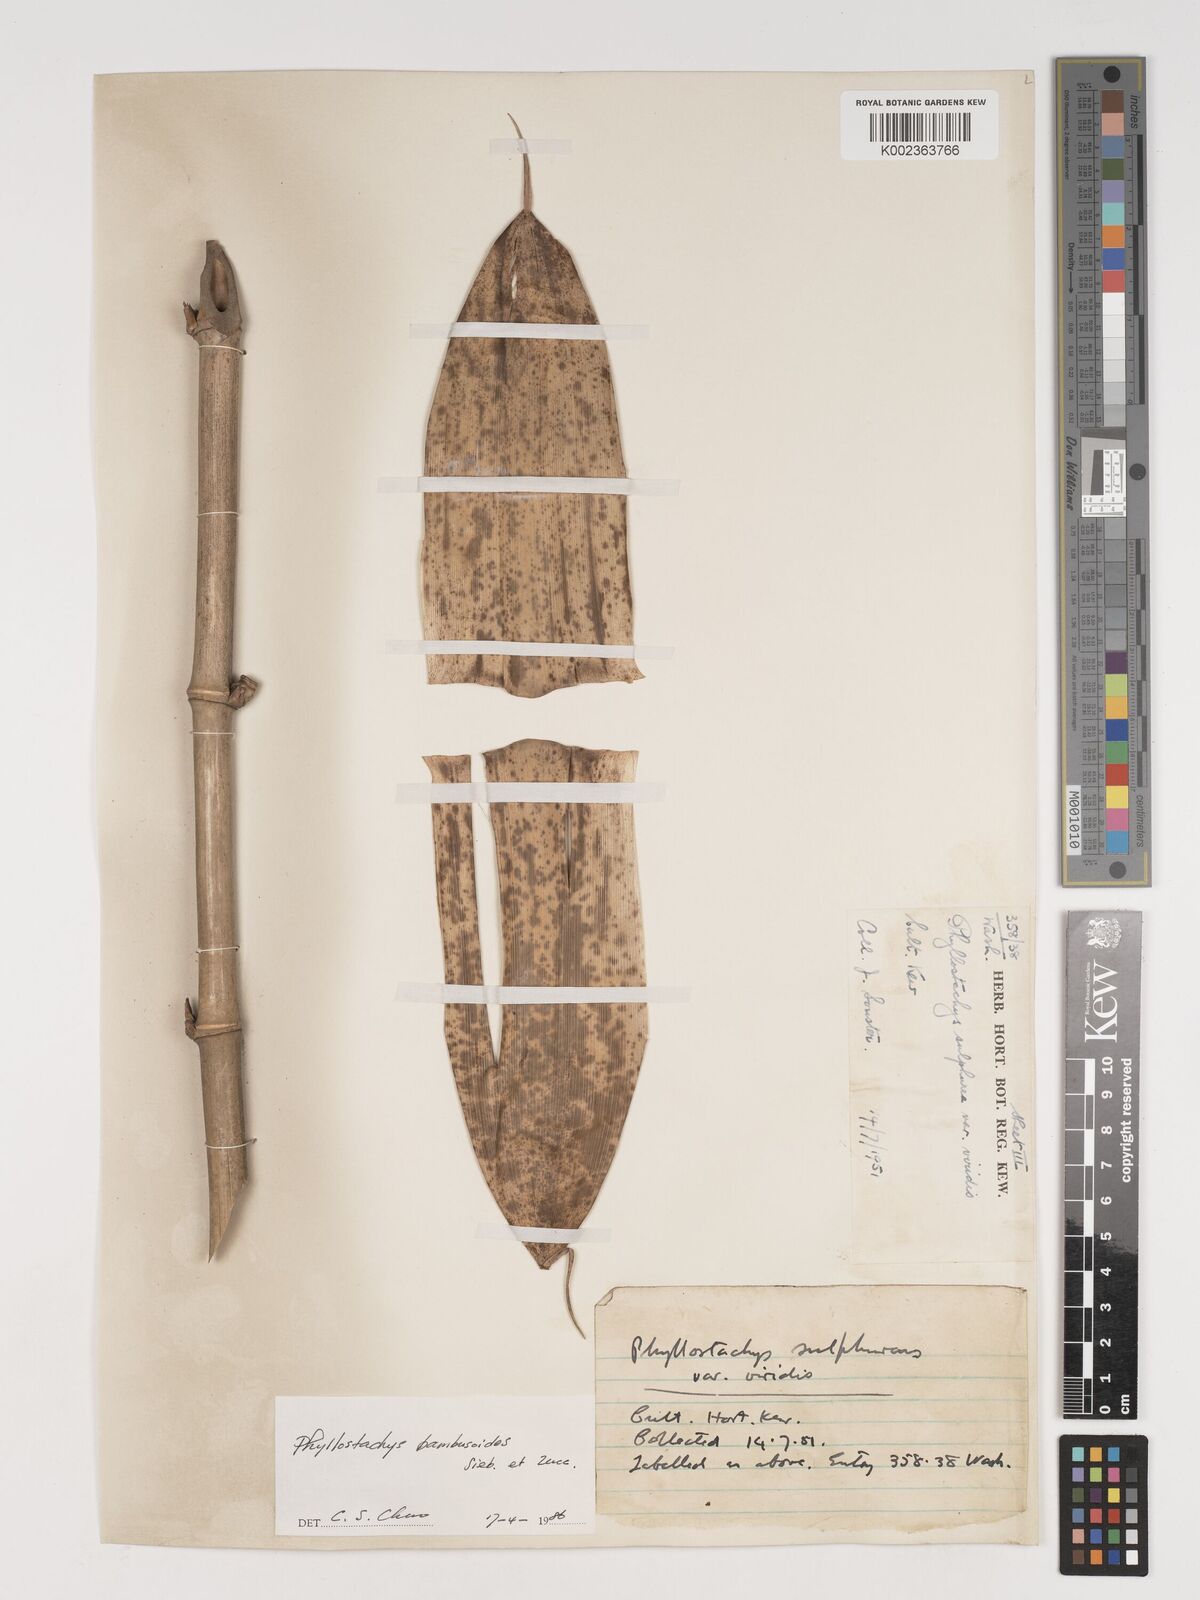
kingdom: Plantae
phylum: Tracheophyta
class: Liliopsida
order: Poales
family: Poaceae
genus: Phyllostachys
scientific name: Phyllostachys reticulata
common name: Bamboo
